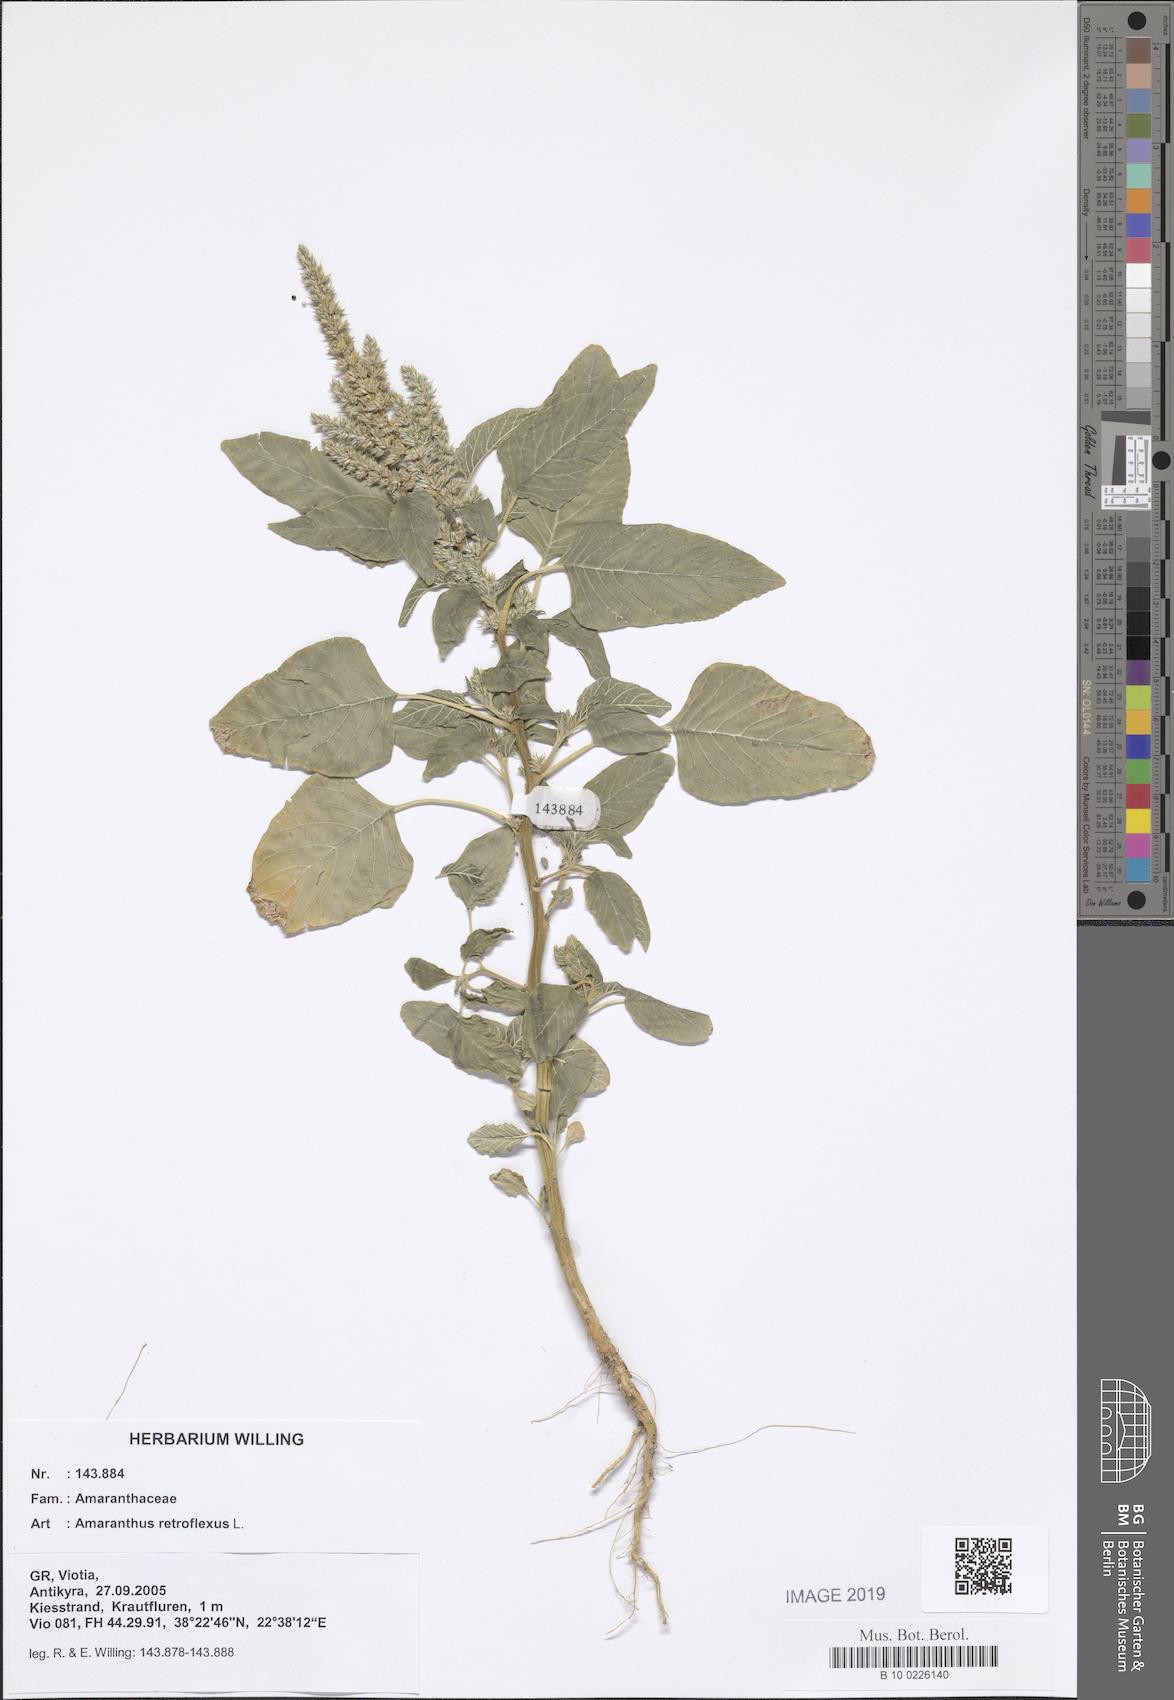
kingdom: Plantae
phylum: Tracheophyta
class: Magnoliopsida
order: Caryophyllales
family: Amaranthaceae
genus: Amaranthus
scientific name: Amaranthus retroflexus
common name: Redroot amaranth
